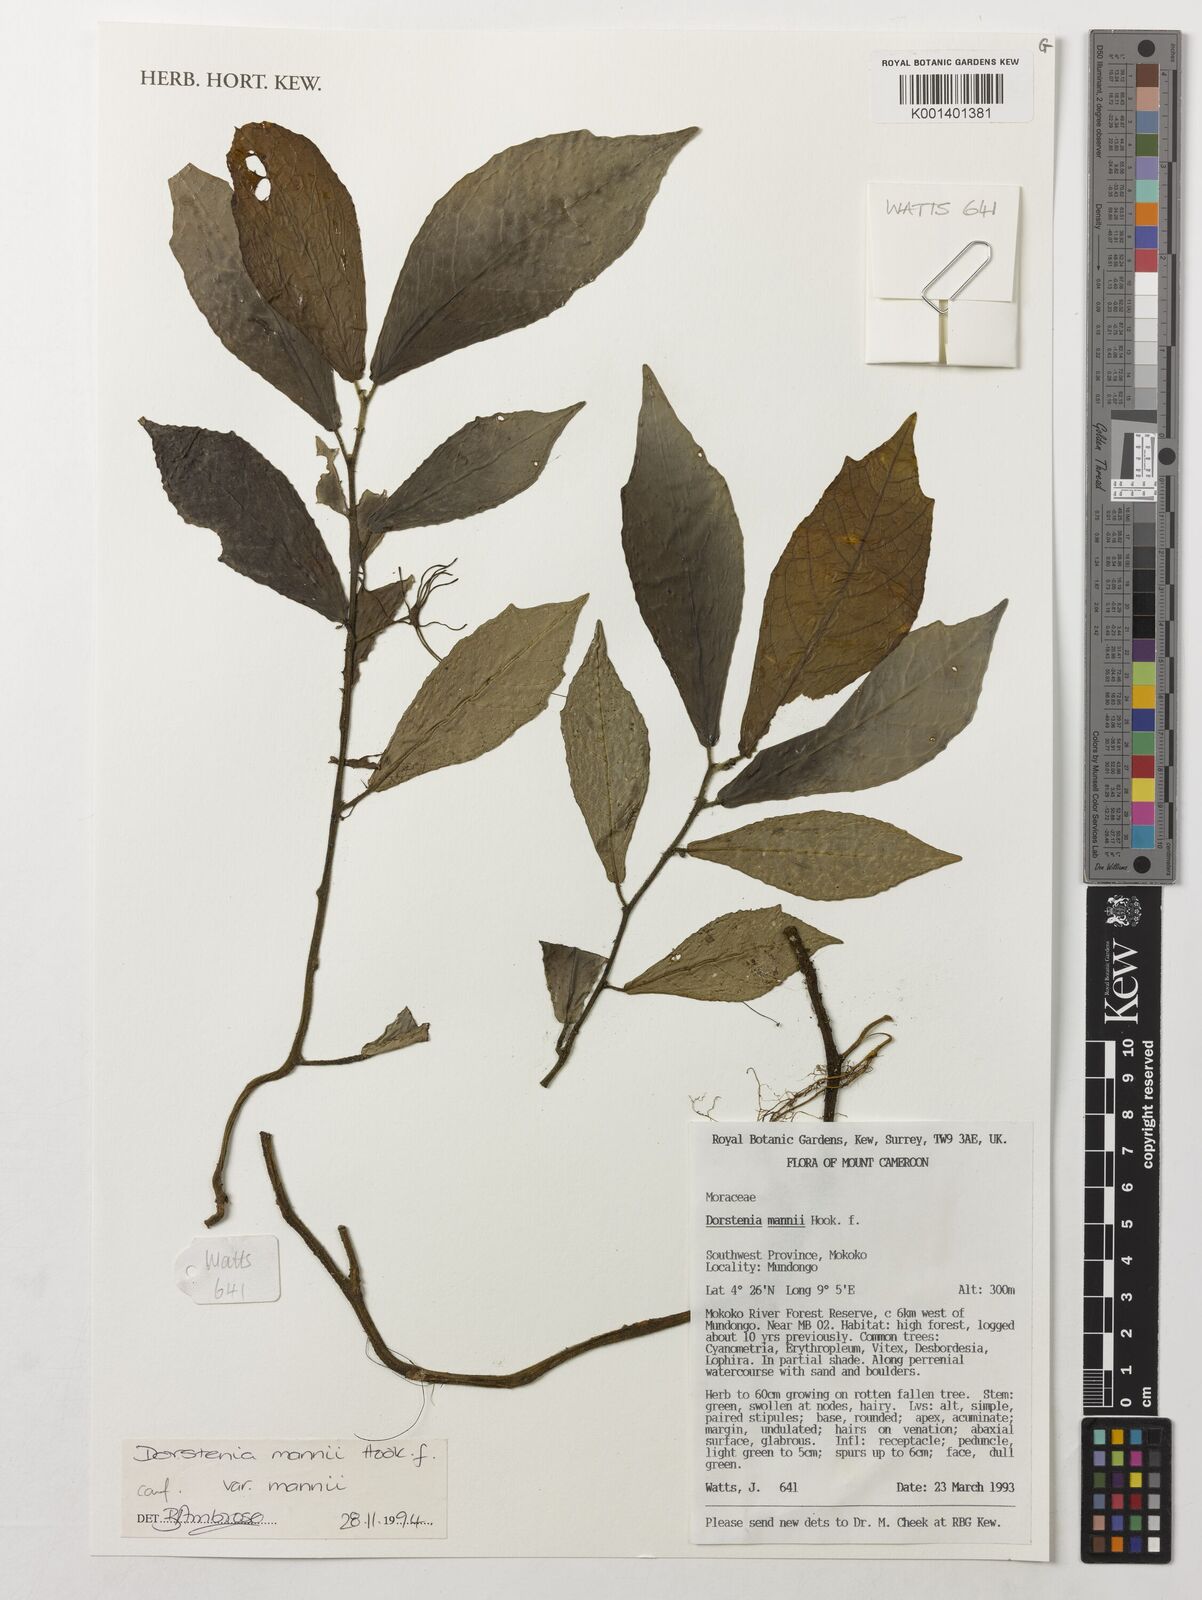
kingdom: Plantae
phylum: Tracheophyta
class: Magnoliopsida
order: Rosales
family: Moraceae
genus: Dorstenia
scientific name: Dorstenia mannii
